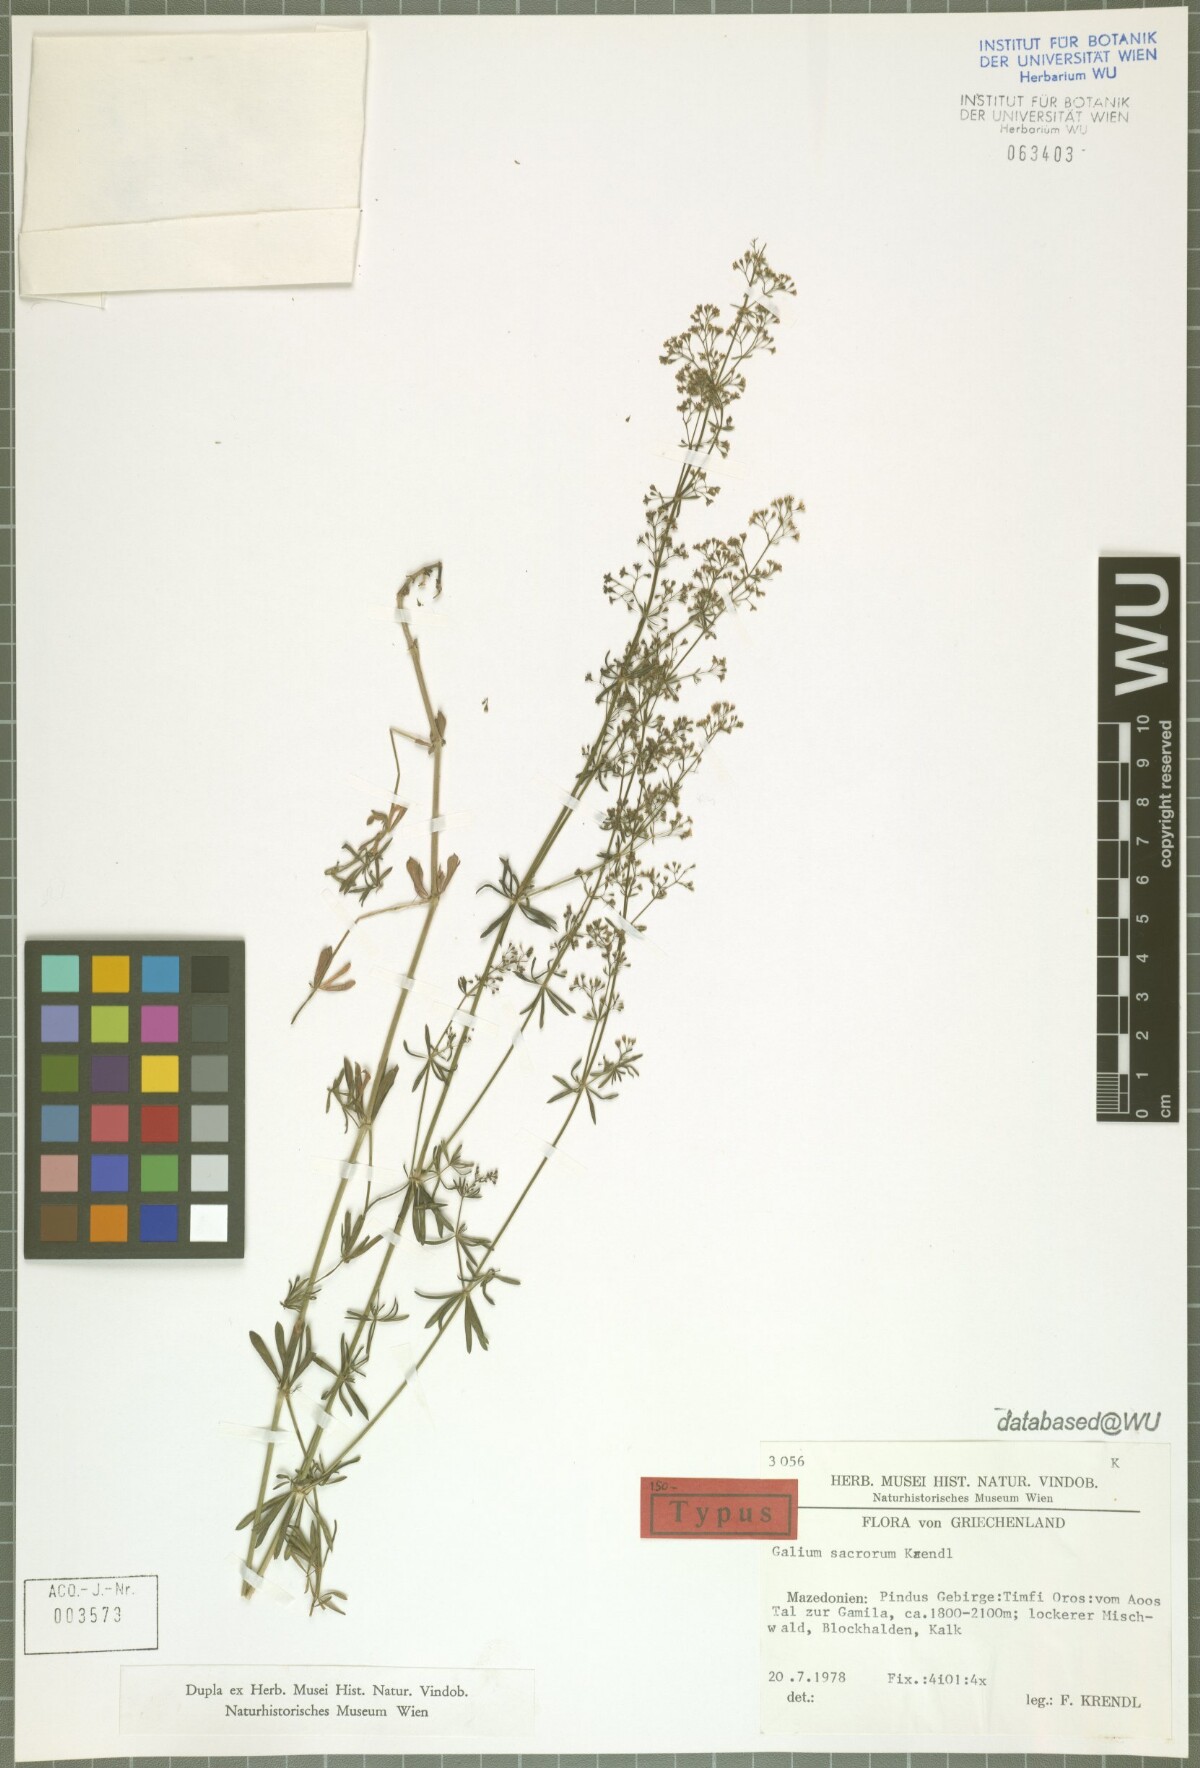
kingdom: Plantae
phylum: Tracheophyta
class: Magnoliopsida
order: Gentianales
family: Rubiaceae
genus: Galium
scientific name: Galium monasterium
